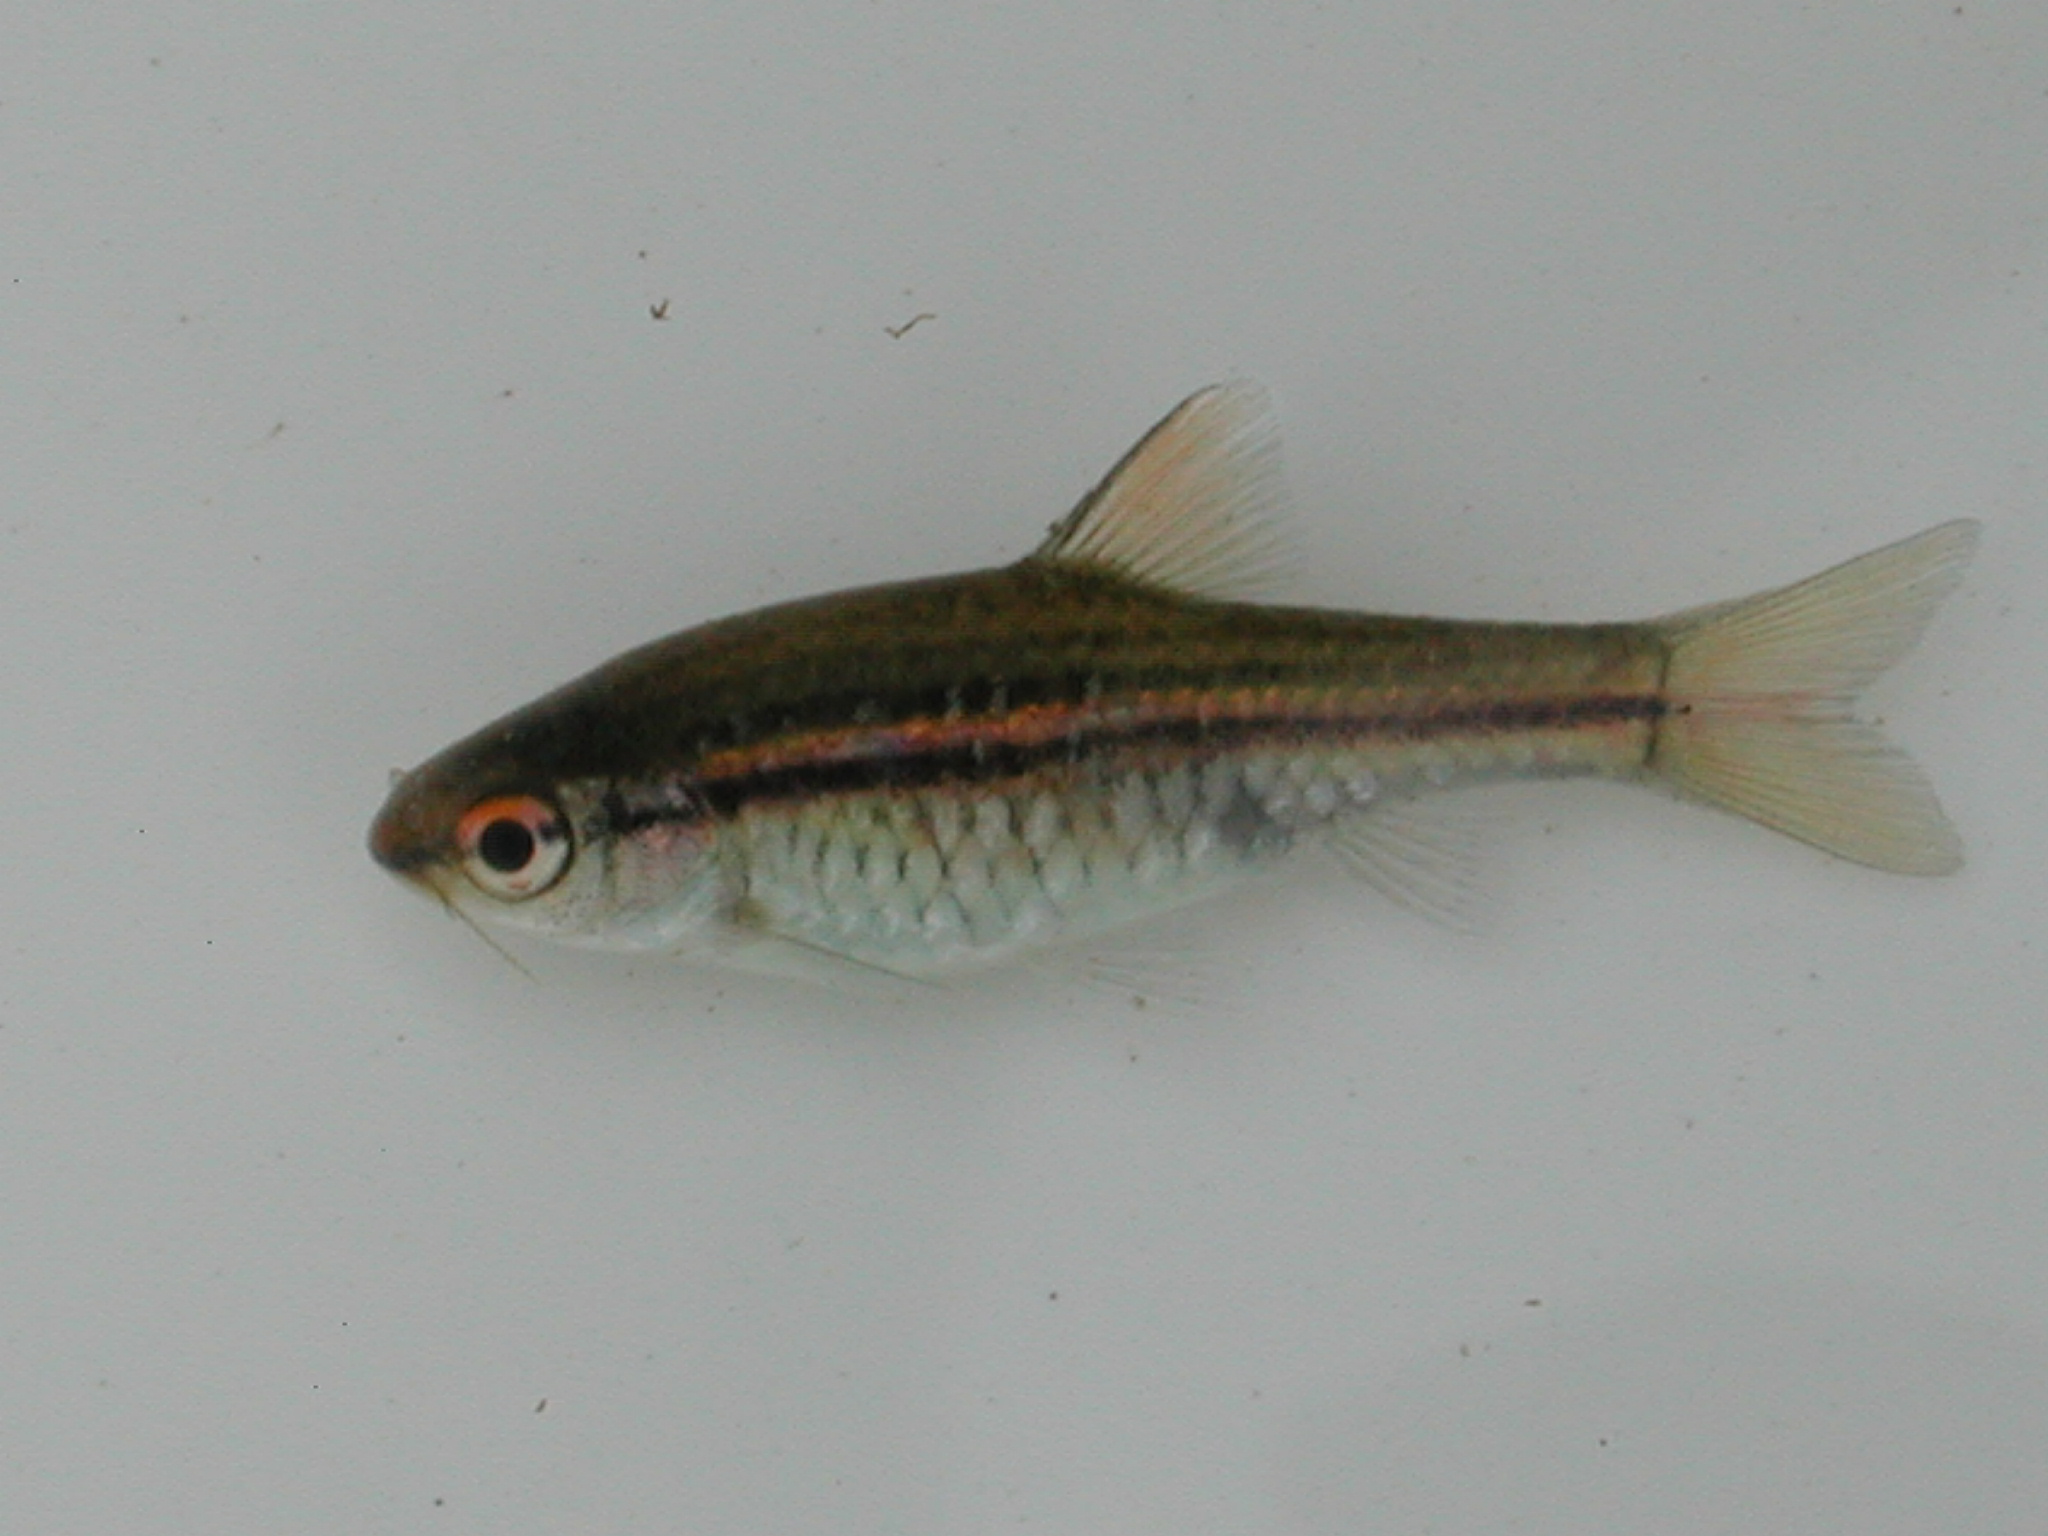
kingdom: Animalia
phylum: Chordata
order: Cypriniformes
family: Cyprinidae
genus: Enteromius
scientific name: Enteromius multilineatus
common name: Copperstripe barb
